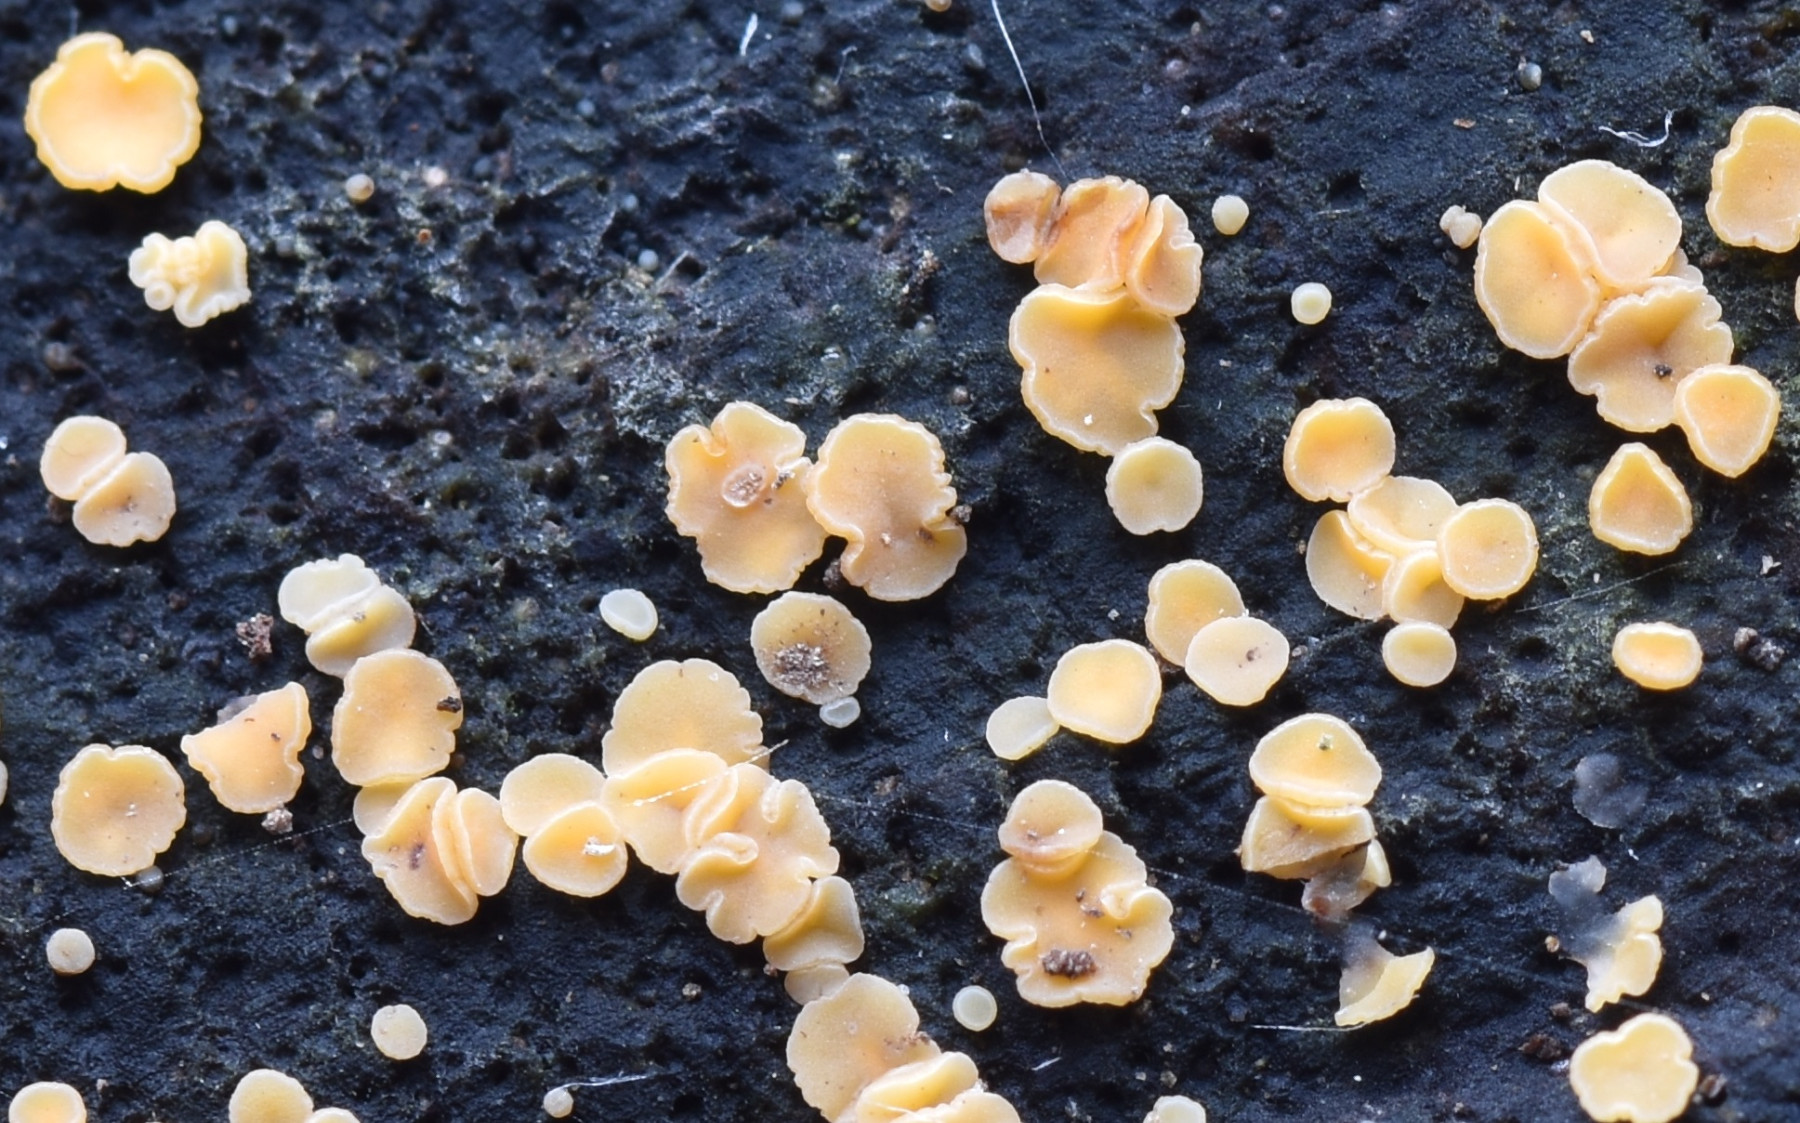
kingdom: Fungi
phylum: Ascomycota
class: Leotiomycetes
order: Helotiales
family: Helotiaceae
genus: Bispora
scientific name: Bispora pallescens
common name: måtte-snitskive
